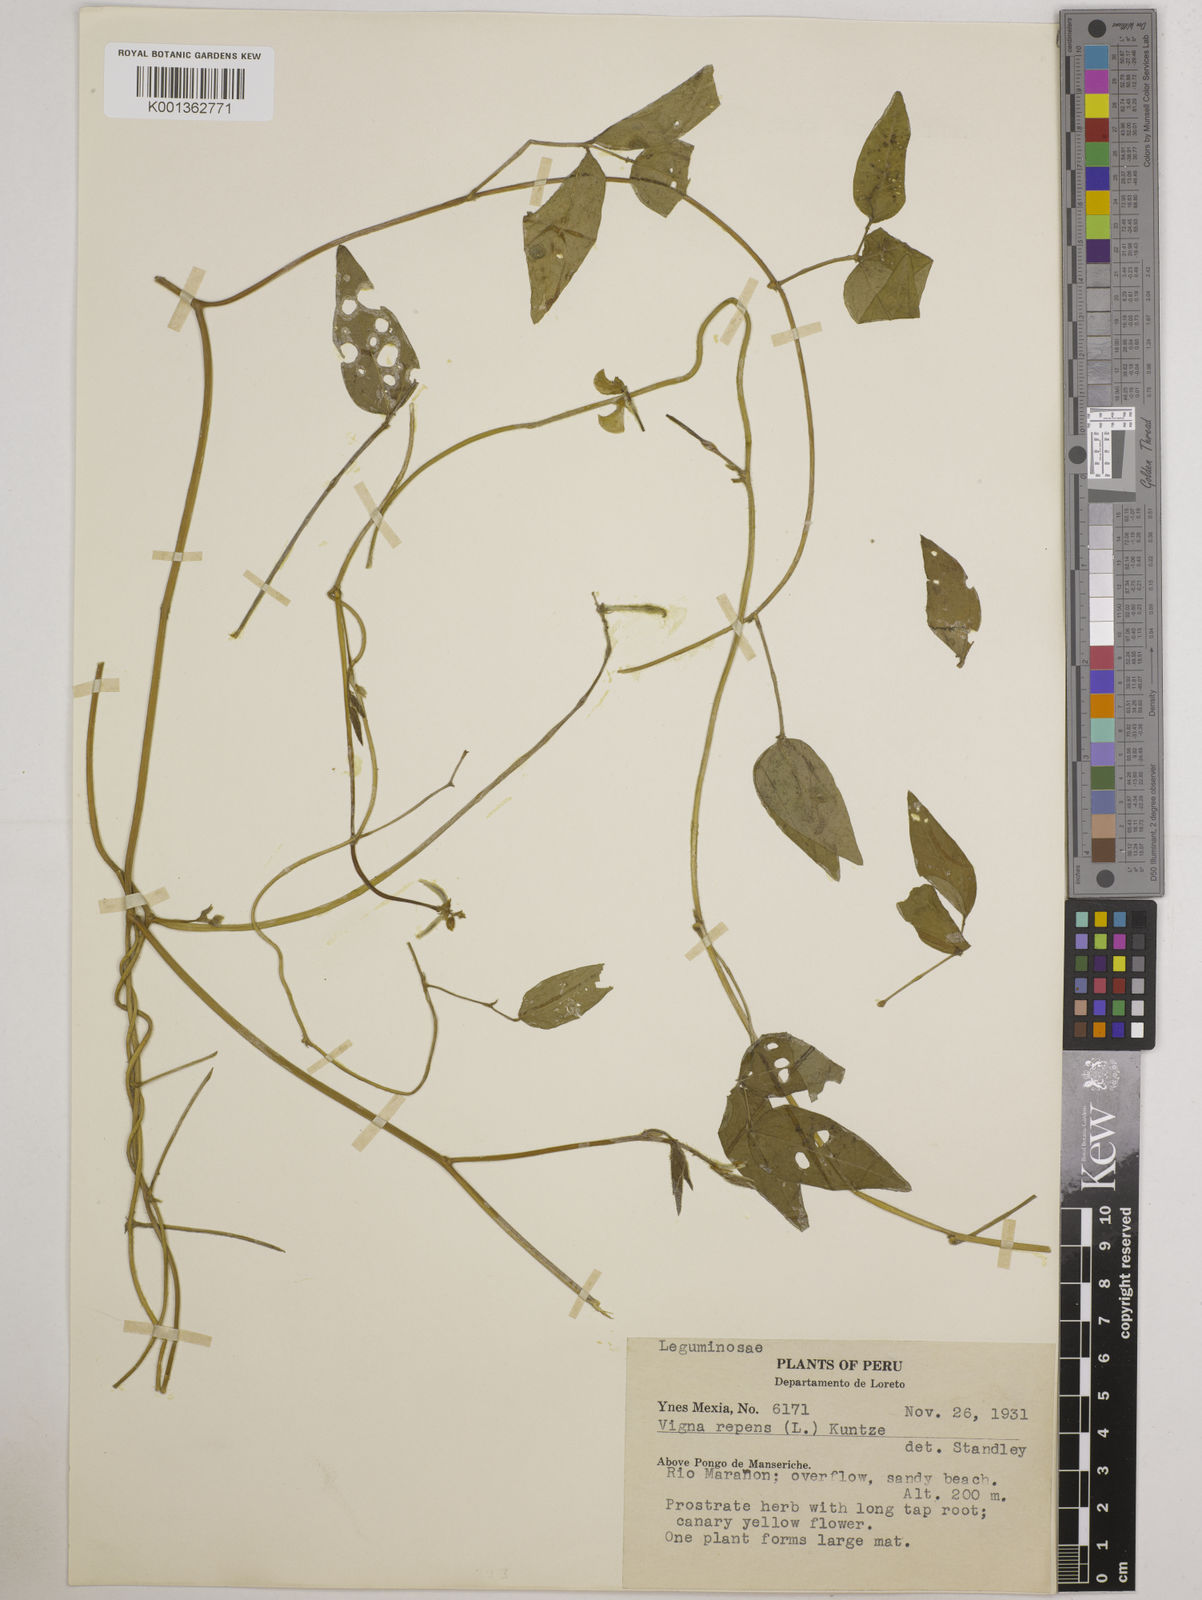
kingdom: Plantae
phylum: Tracheophyta
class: Magnoliopsida
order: Fabales
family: Fabaceae
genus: Vigna
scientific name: Vigna luteola
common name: Hairypod cowpea
